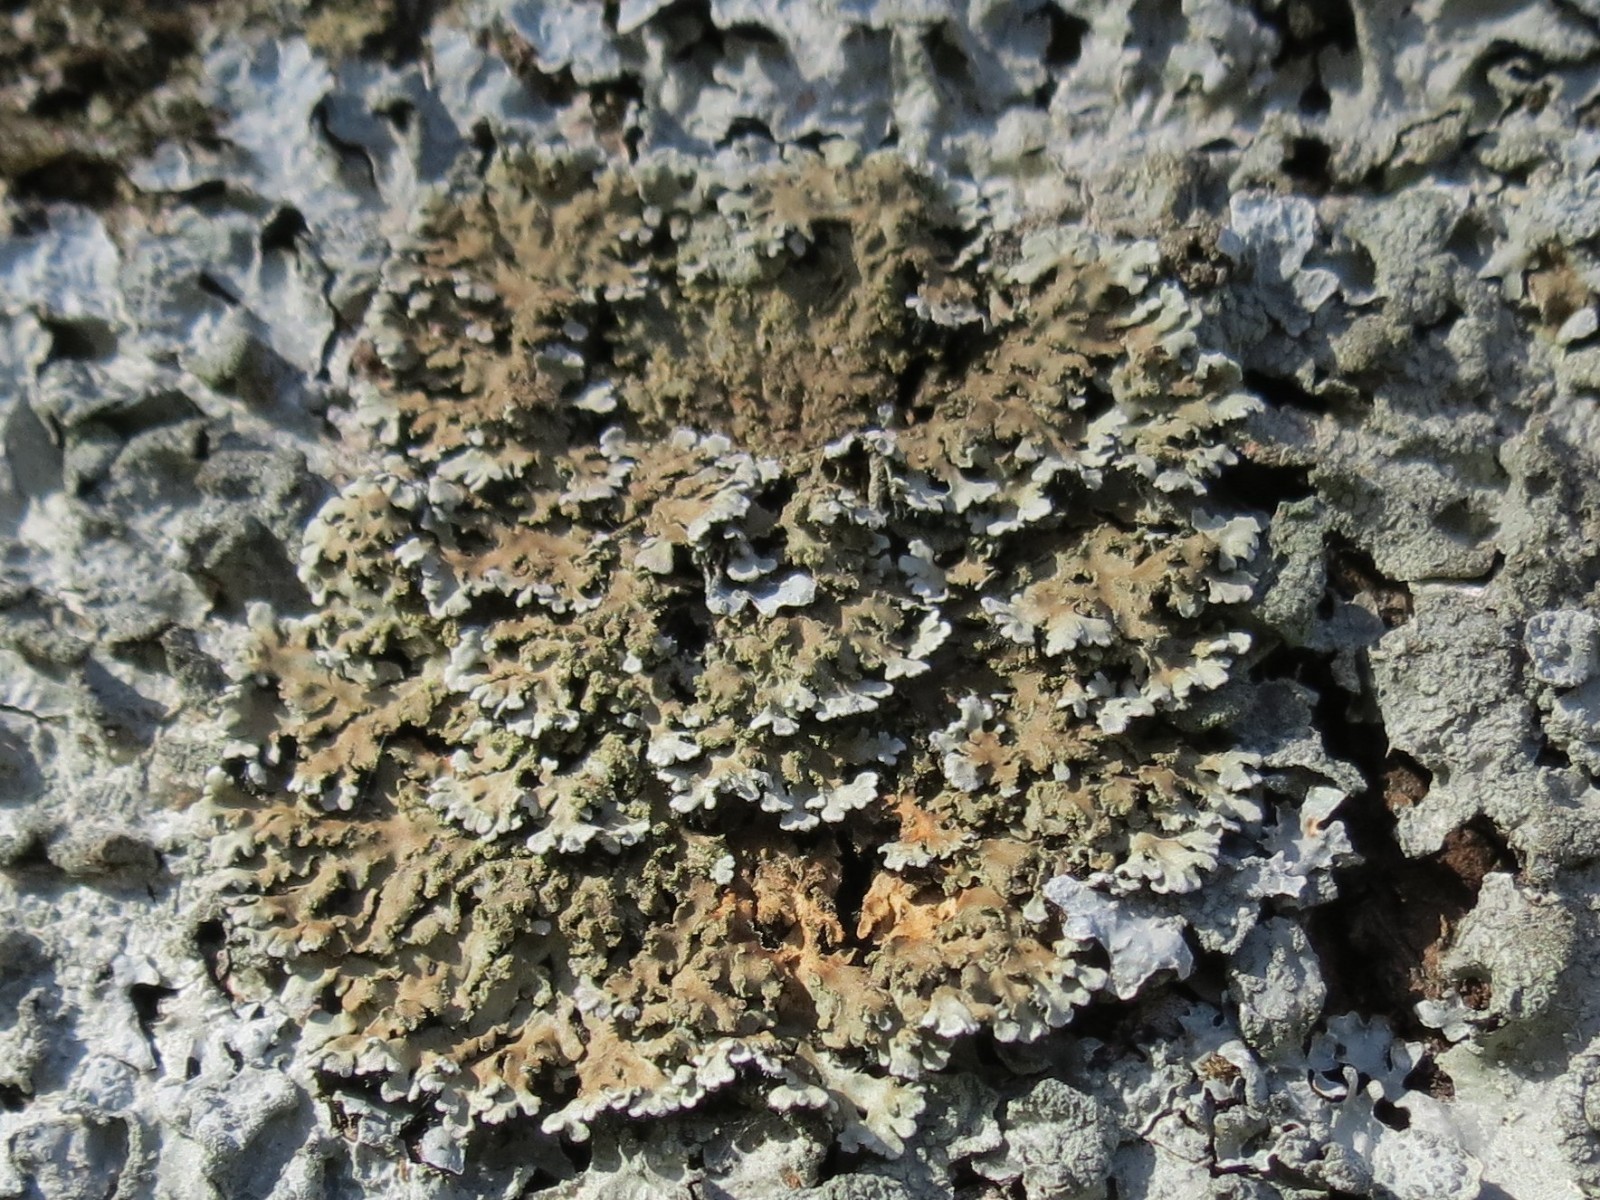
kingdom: Fungi
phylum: Ascomycota
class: Lecanoromycetes
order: Caliciales
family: Physciaceae
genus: Physconia
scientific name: Physconia
